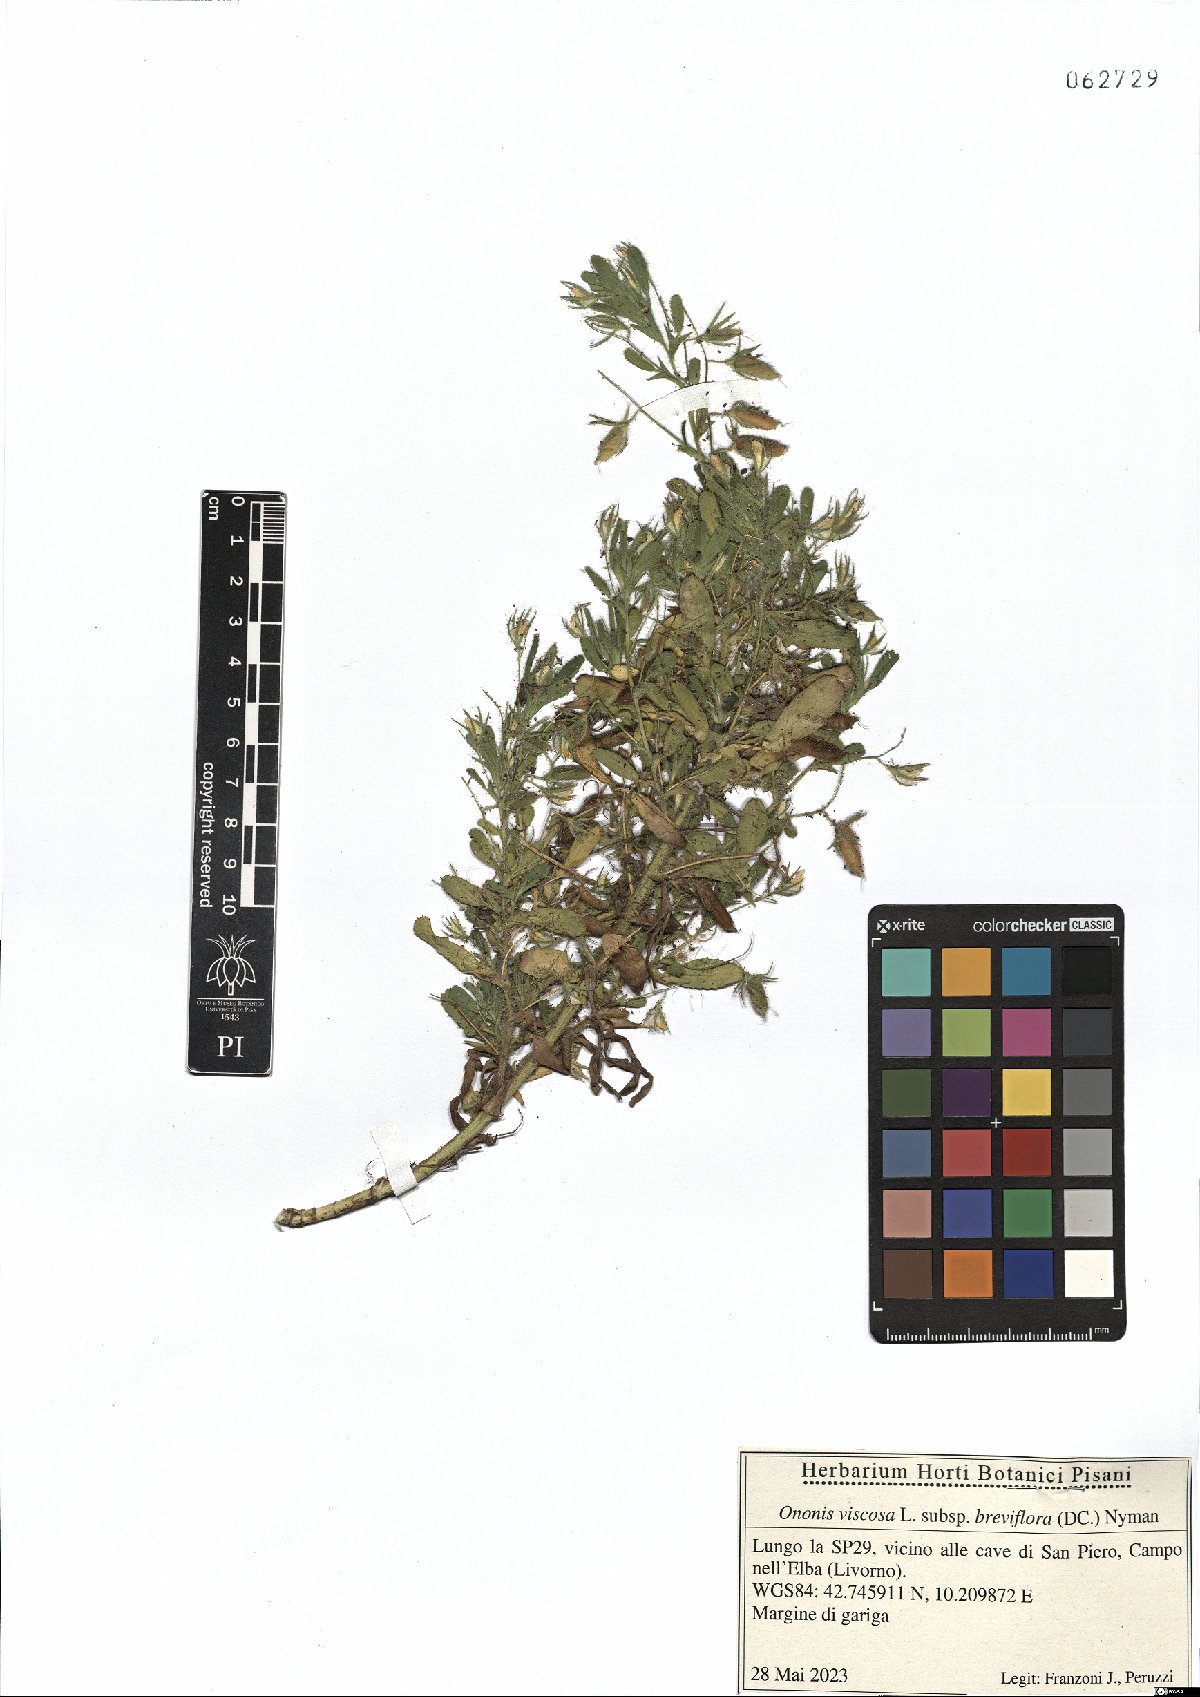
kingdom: Plantae
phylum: Tracheophyta
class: Magnoliopsida
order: Fabales
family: Fabaceae
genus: Ononis
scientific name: Ononis viscosa
